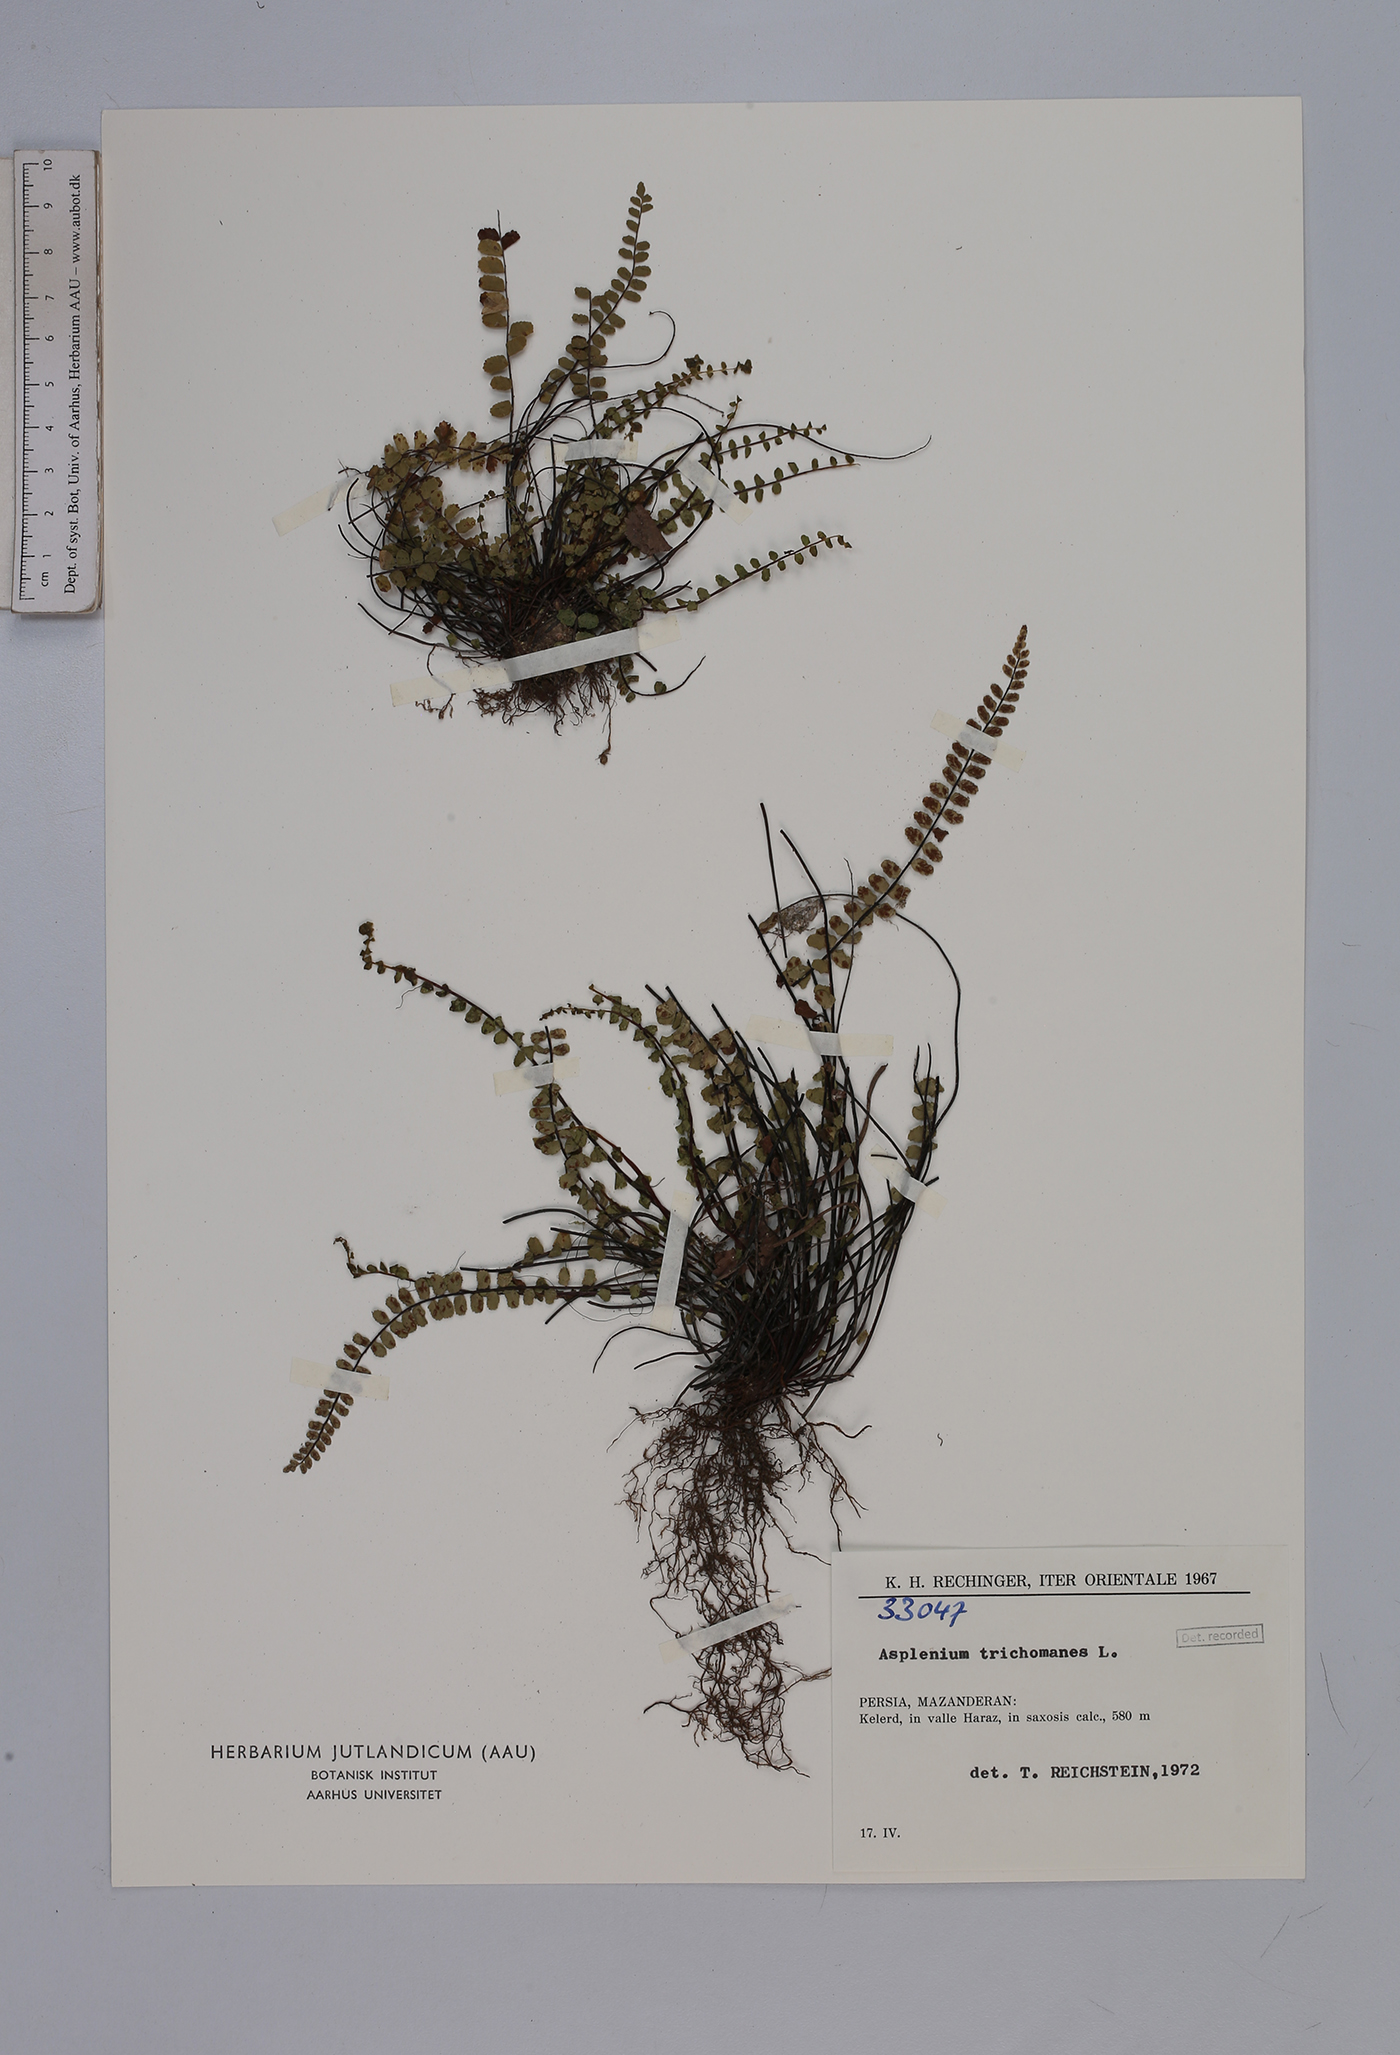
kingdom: Plantae
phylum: Tracheophyta
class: Polypodiopsida
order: Polypodiales
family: Aspleniaceae
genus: Asplenium
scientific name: Asplenium trichomanes
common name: Maidenhair spleenwort
